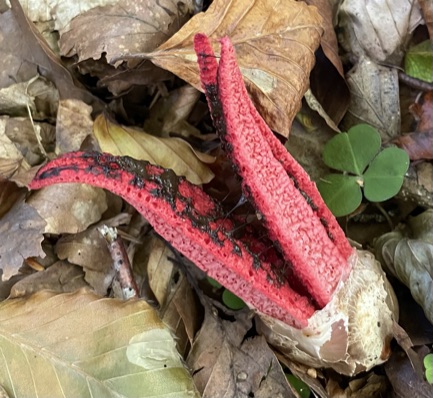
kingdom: Fungi
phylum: Basidiomycota
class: Agaricomycetes
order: Phallales
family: Phallaceae
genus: Clathrus
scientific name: Clathrus archeri
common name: blækspruttesvamp
